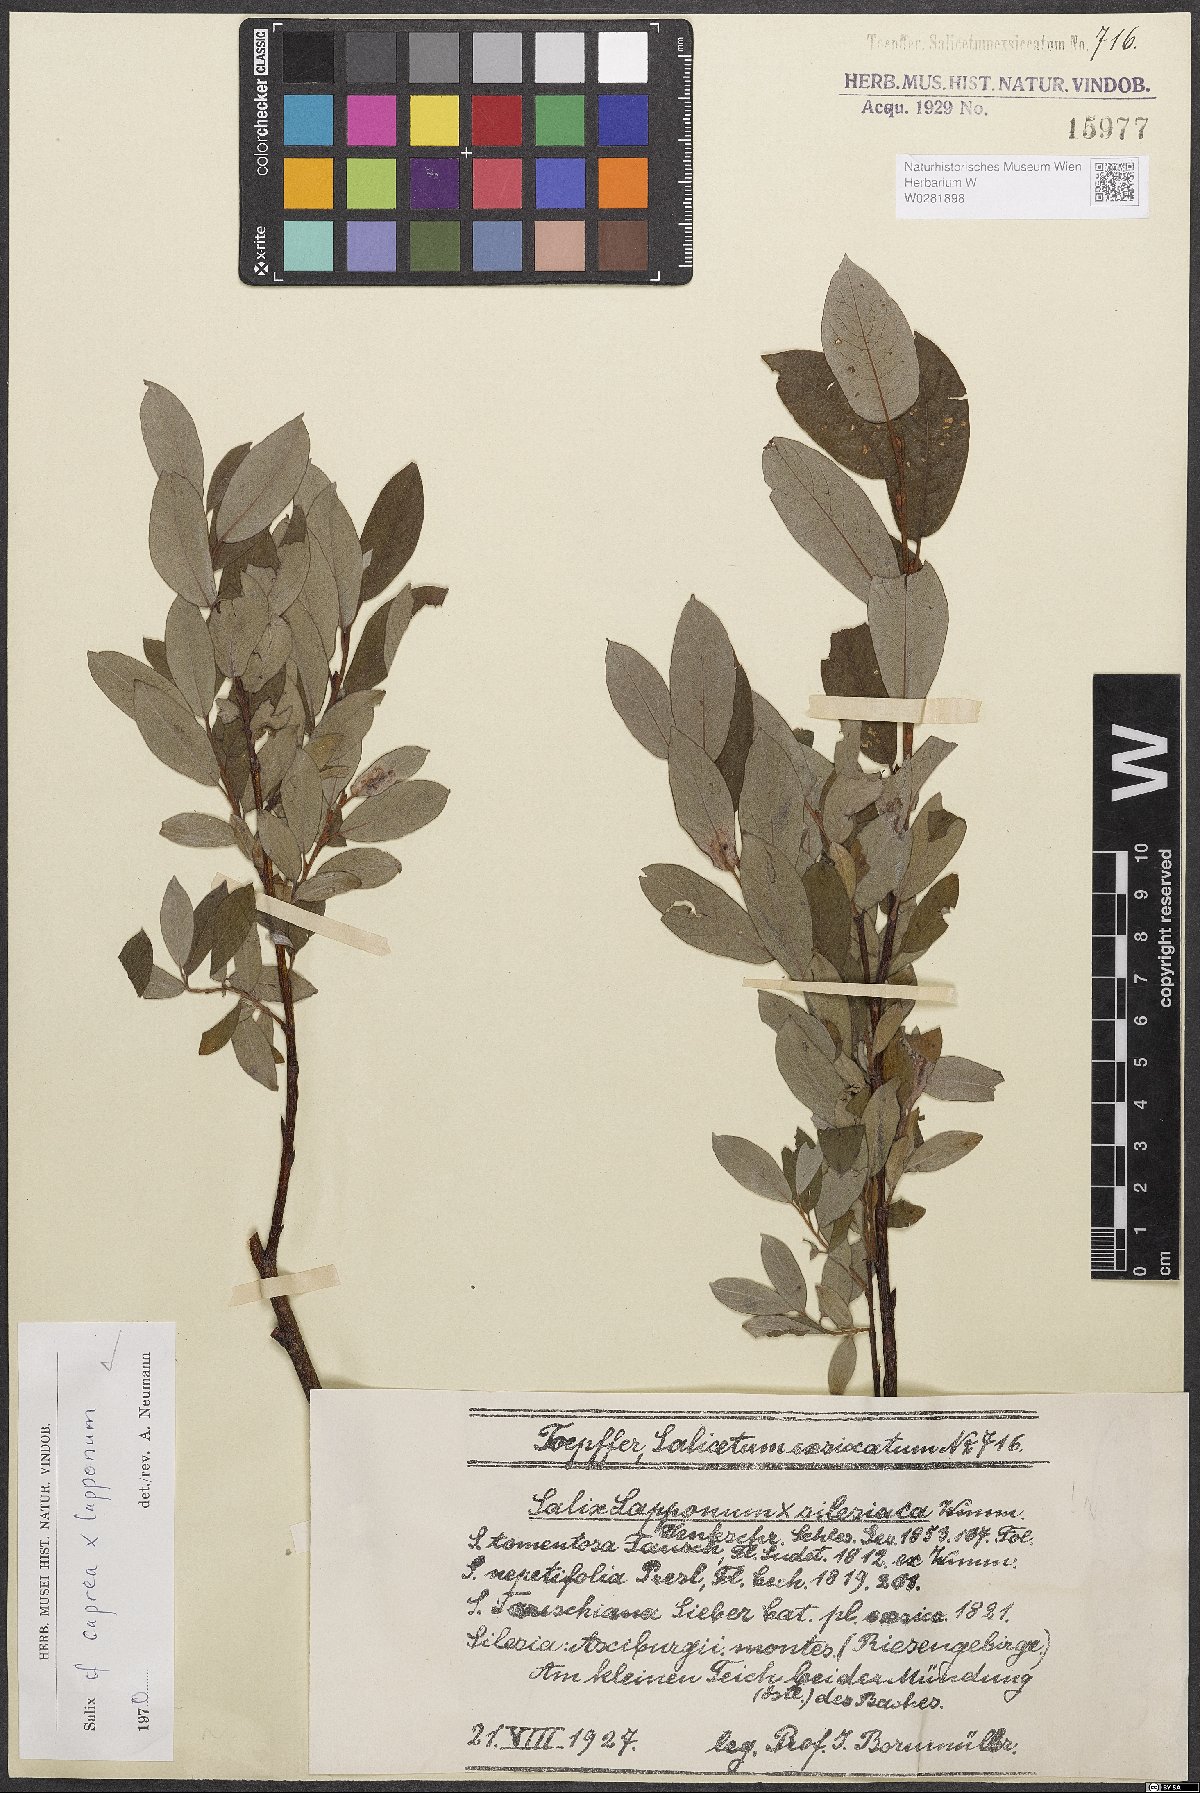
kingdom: Plantae
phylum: Tracheophyta
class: Magnoliopsida
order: Malpighiales
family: Salicaceae
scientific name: Salicaceae
